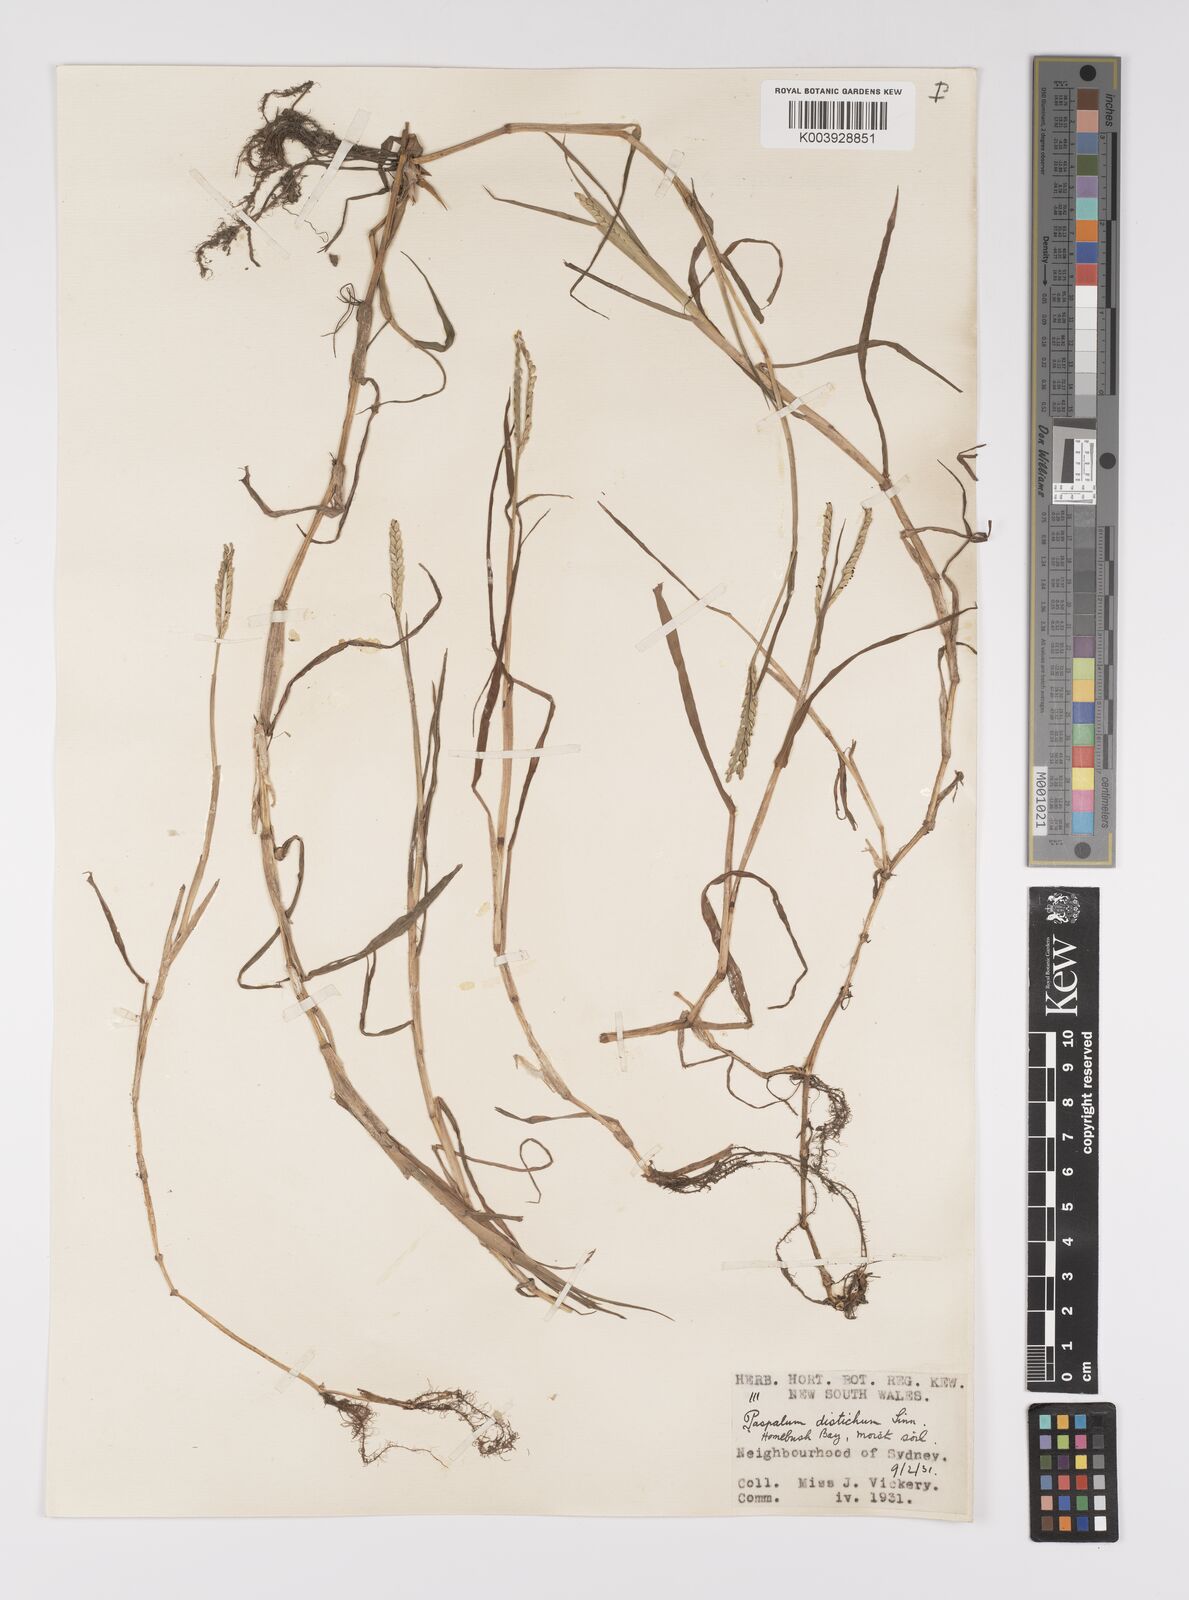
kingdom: Plantae
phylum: Tracheophyta
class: Liliopsida
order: Poales
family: Poaceae
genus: Paspalum
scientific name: Paspalum distichum
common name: Knotgrass
